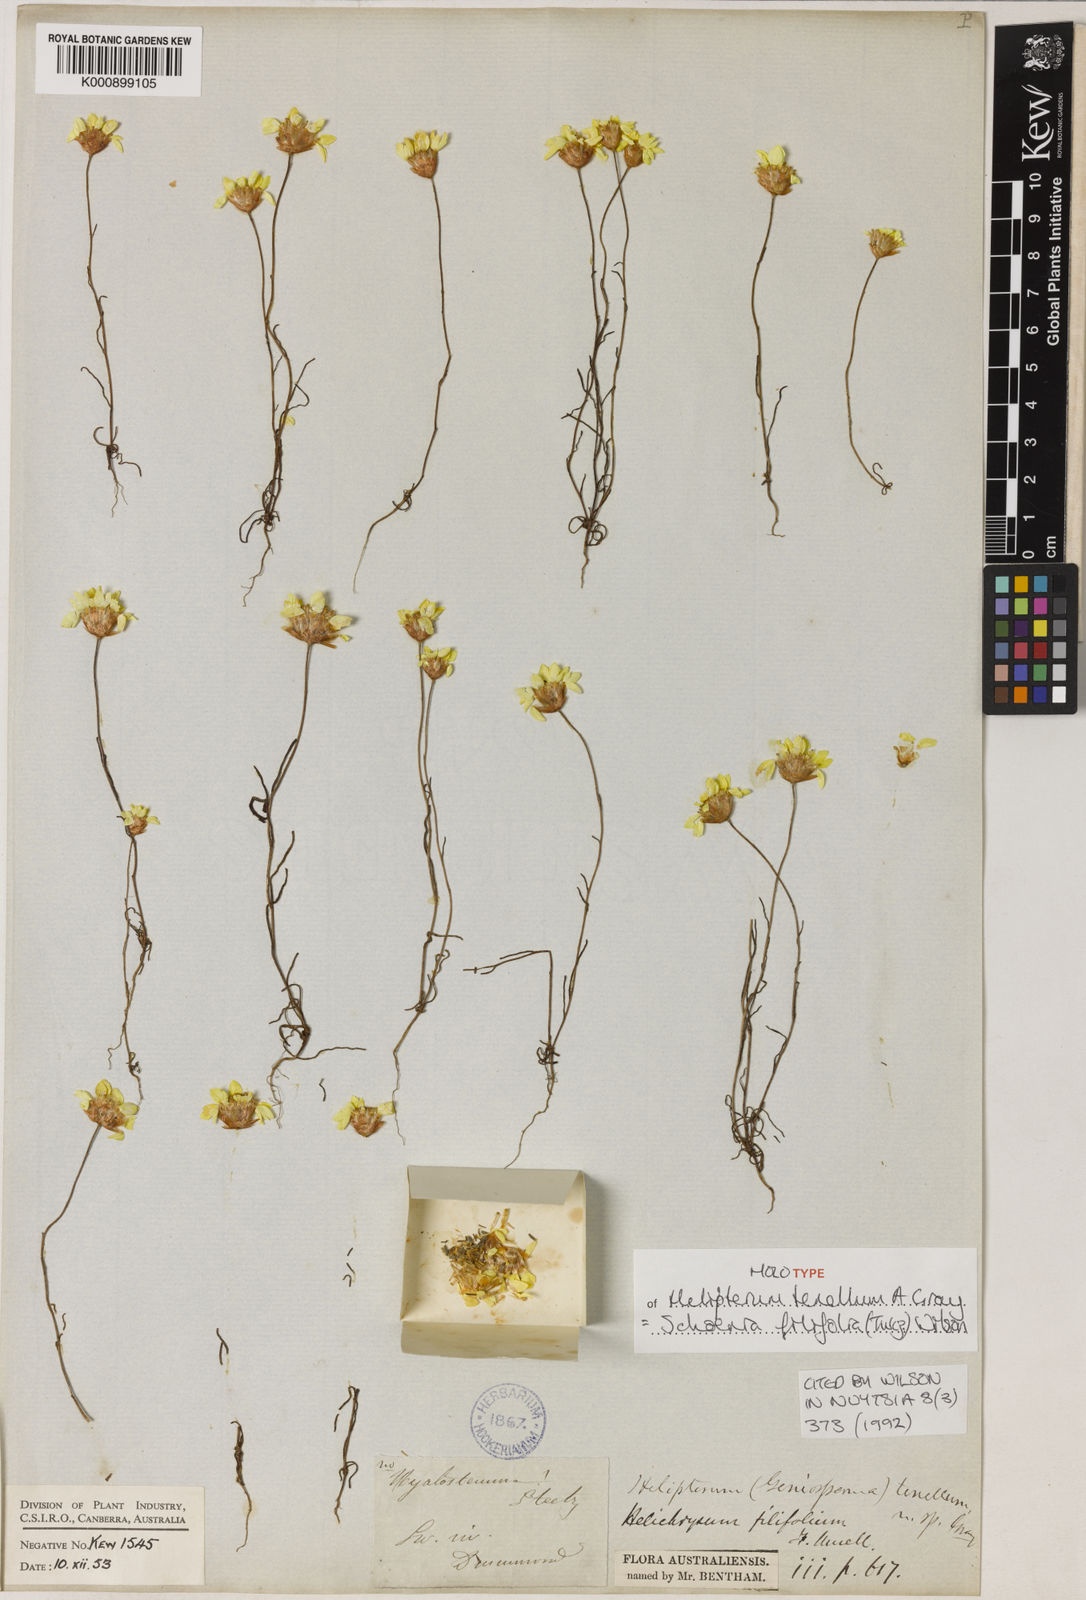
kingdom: Plantae
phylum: Tracheophyta
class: Magnoliopsida
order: Asterales
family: Asteraceae
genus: Schoenia
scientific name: Schoenia filifolia
